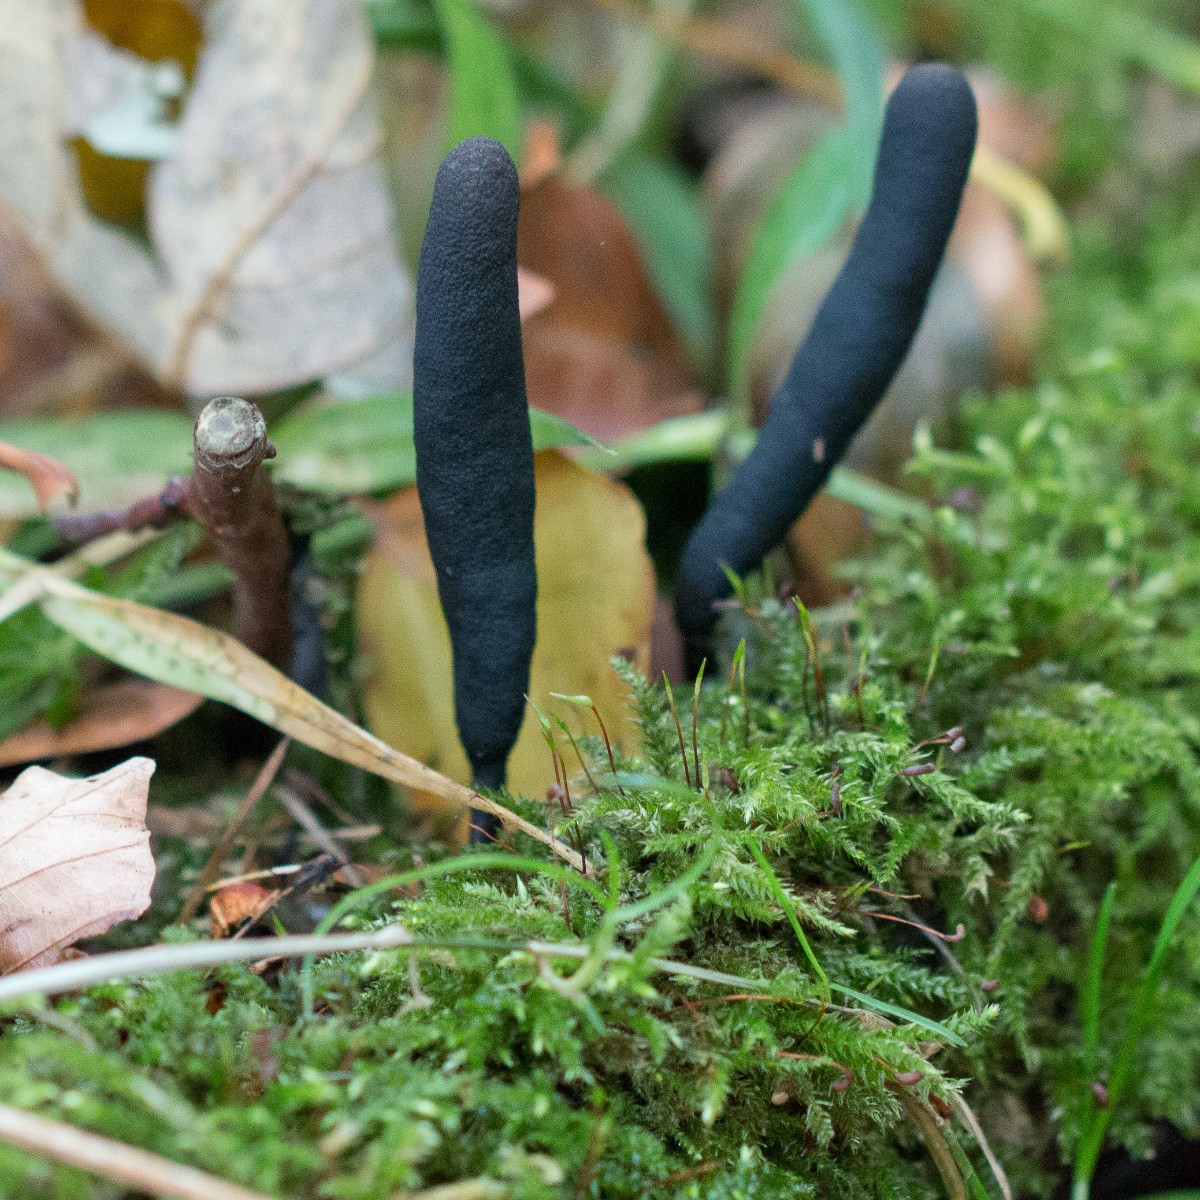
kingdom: Fungi
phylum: Ascomycota
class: Sordariomycetes
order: Xylariales
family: Xylariaceae
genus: Xylaria
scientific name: Xylaria longipes
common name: slank stødsvamp
